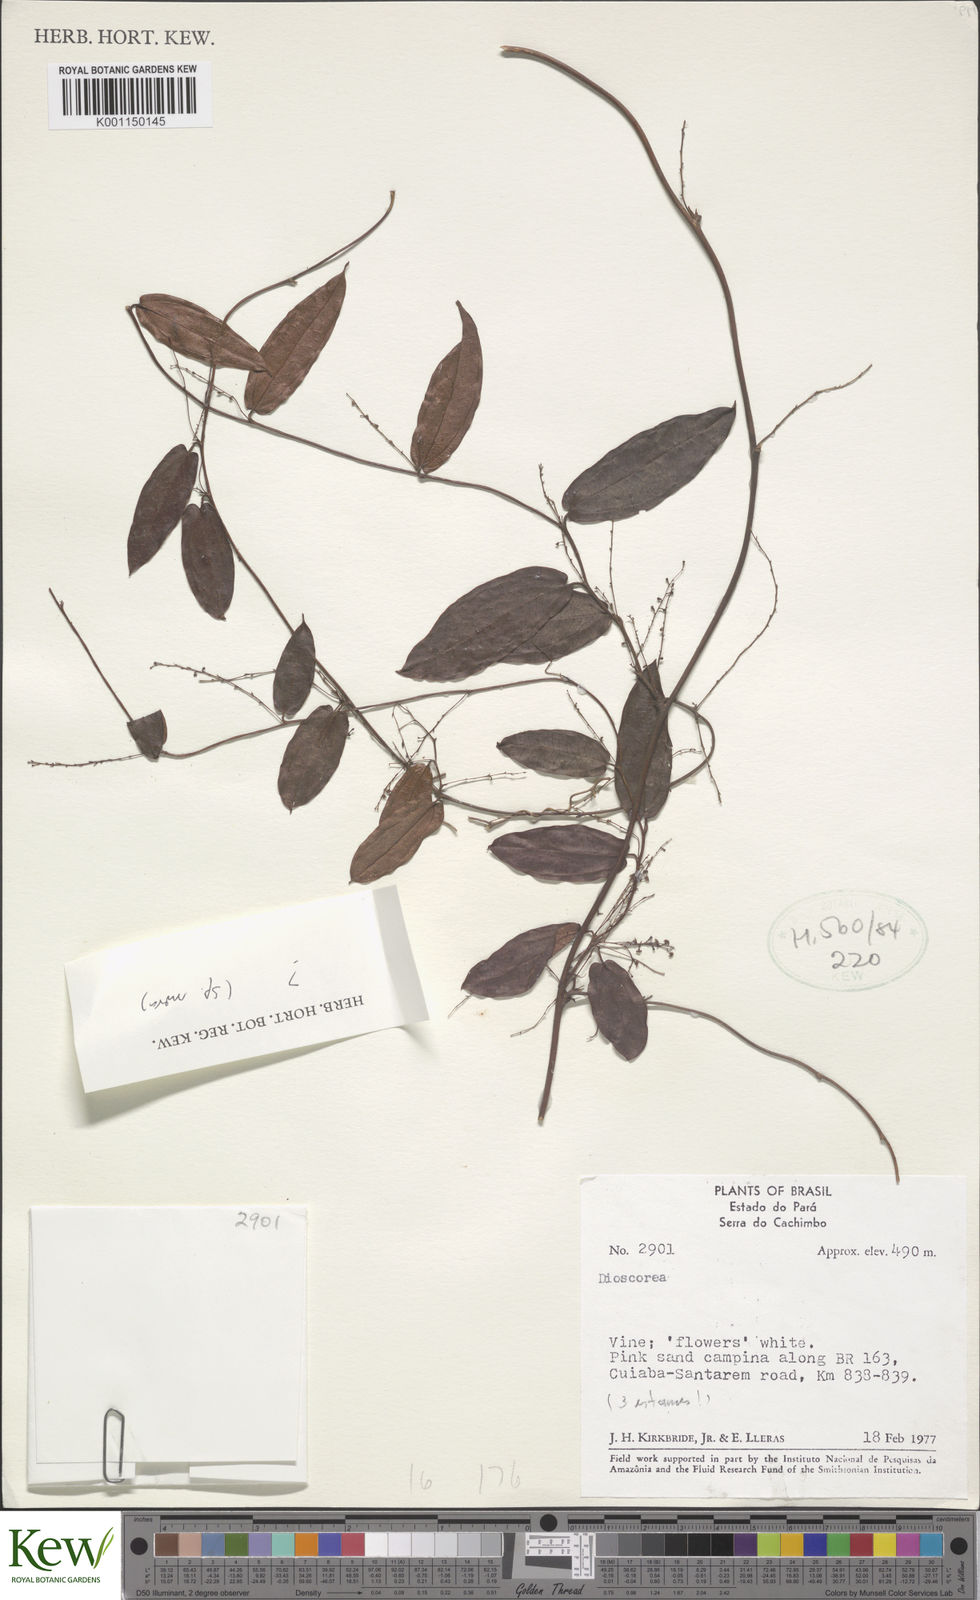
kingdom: Plantae
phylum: Tracheophyta
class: Liliopsida
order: Dioscoreales
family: Dioscoreaceae
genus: Dioscorea
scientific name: Dioscorea
